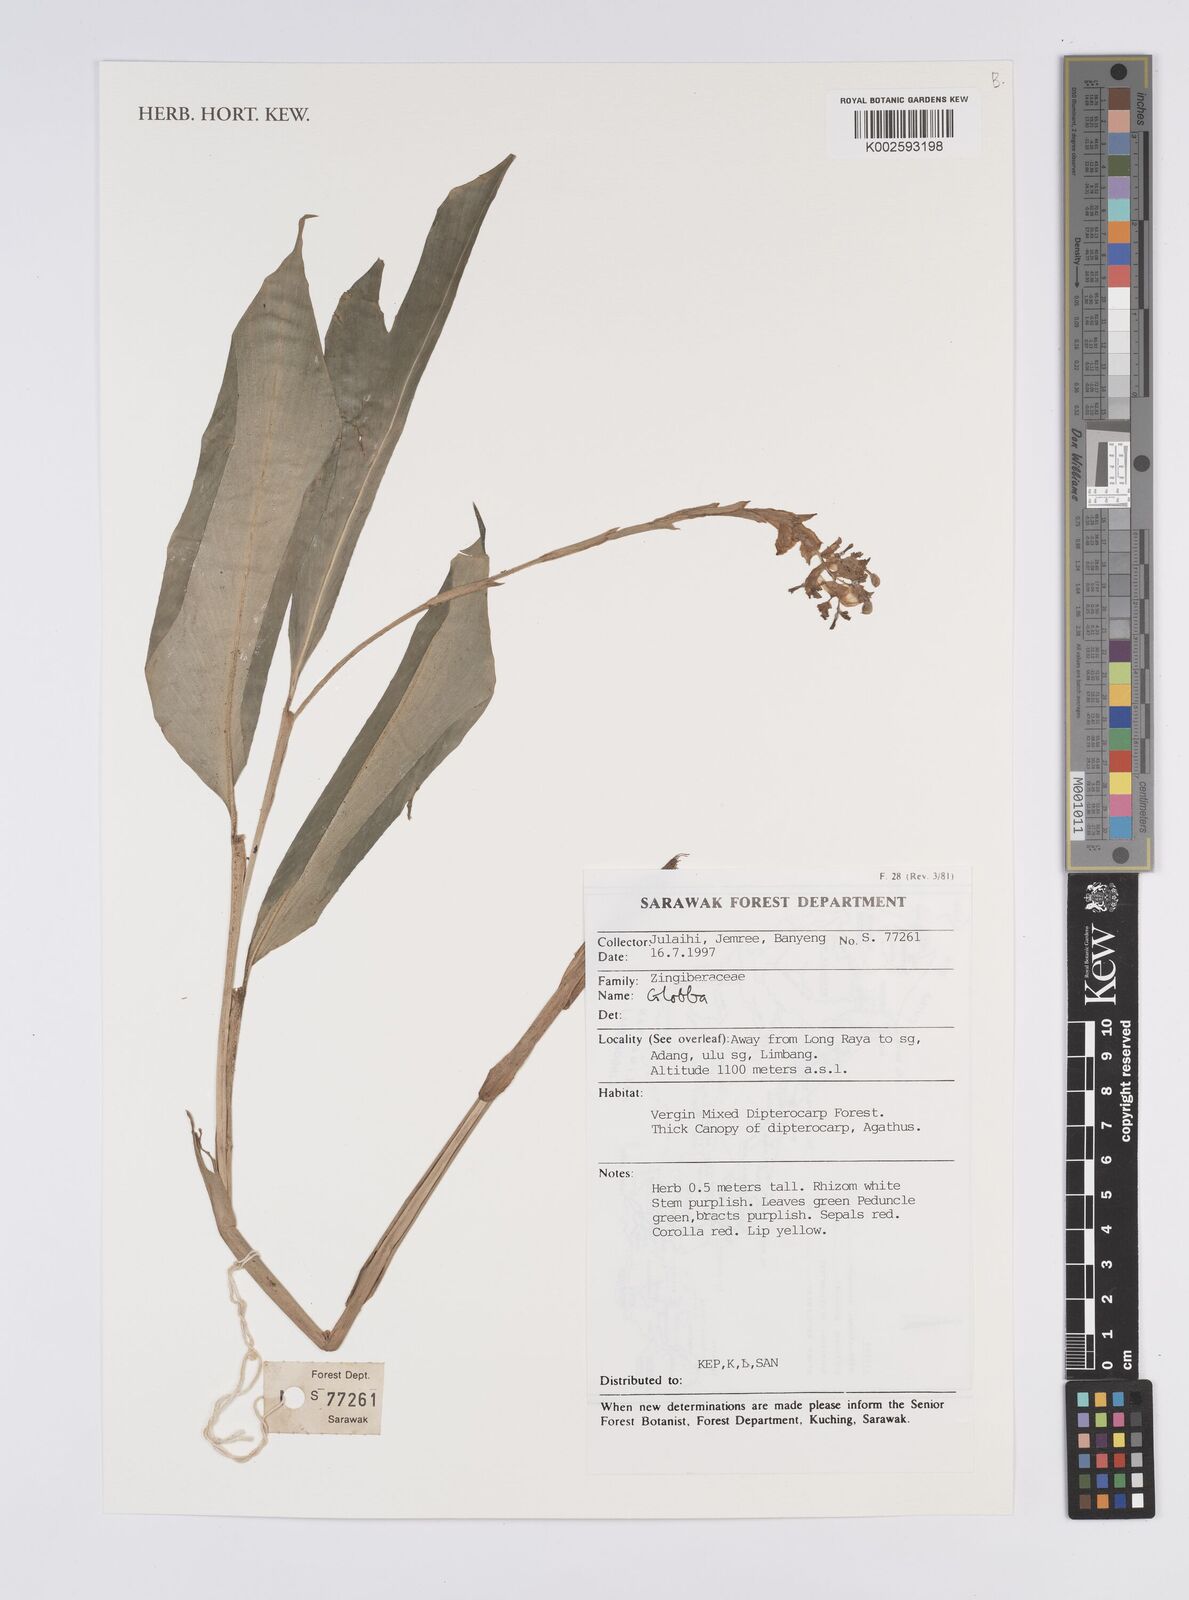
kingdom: Plantae
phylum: Tracheophyta
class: Liliopsida
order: Zingiberales
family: Zingiberaceae
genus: Globba
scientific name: Globba
